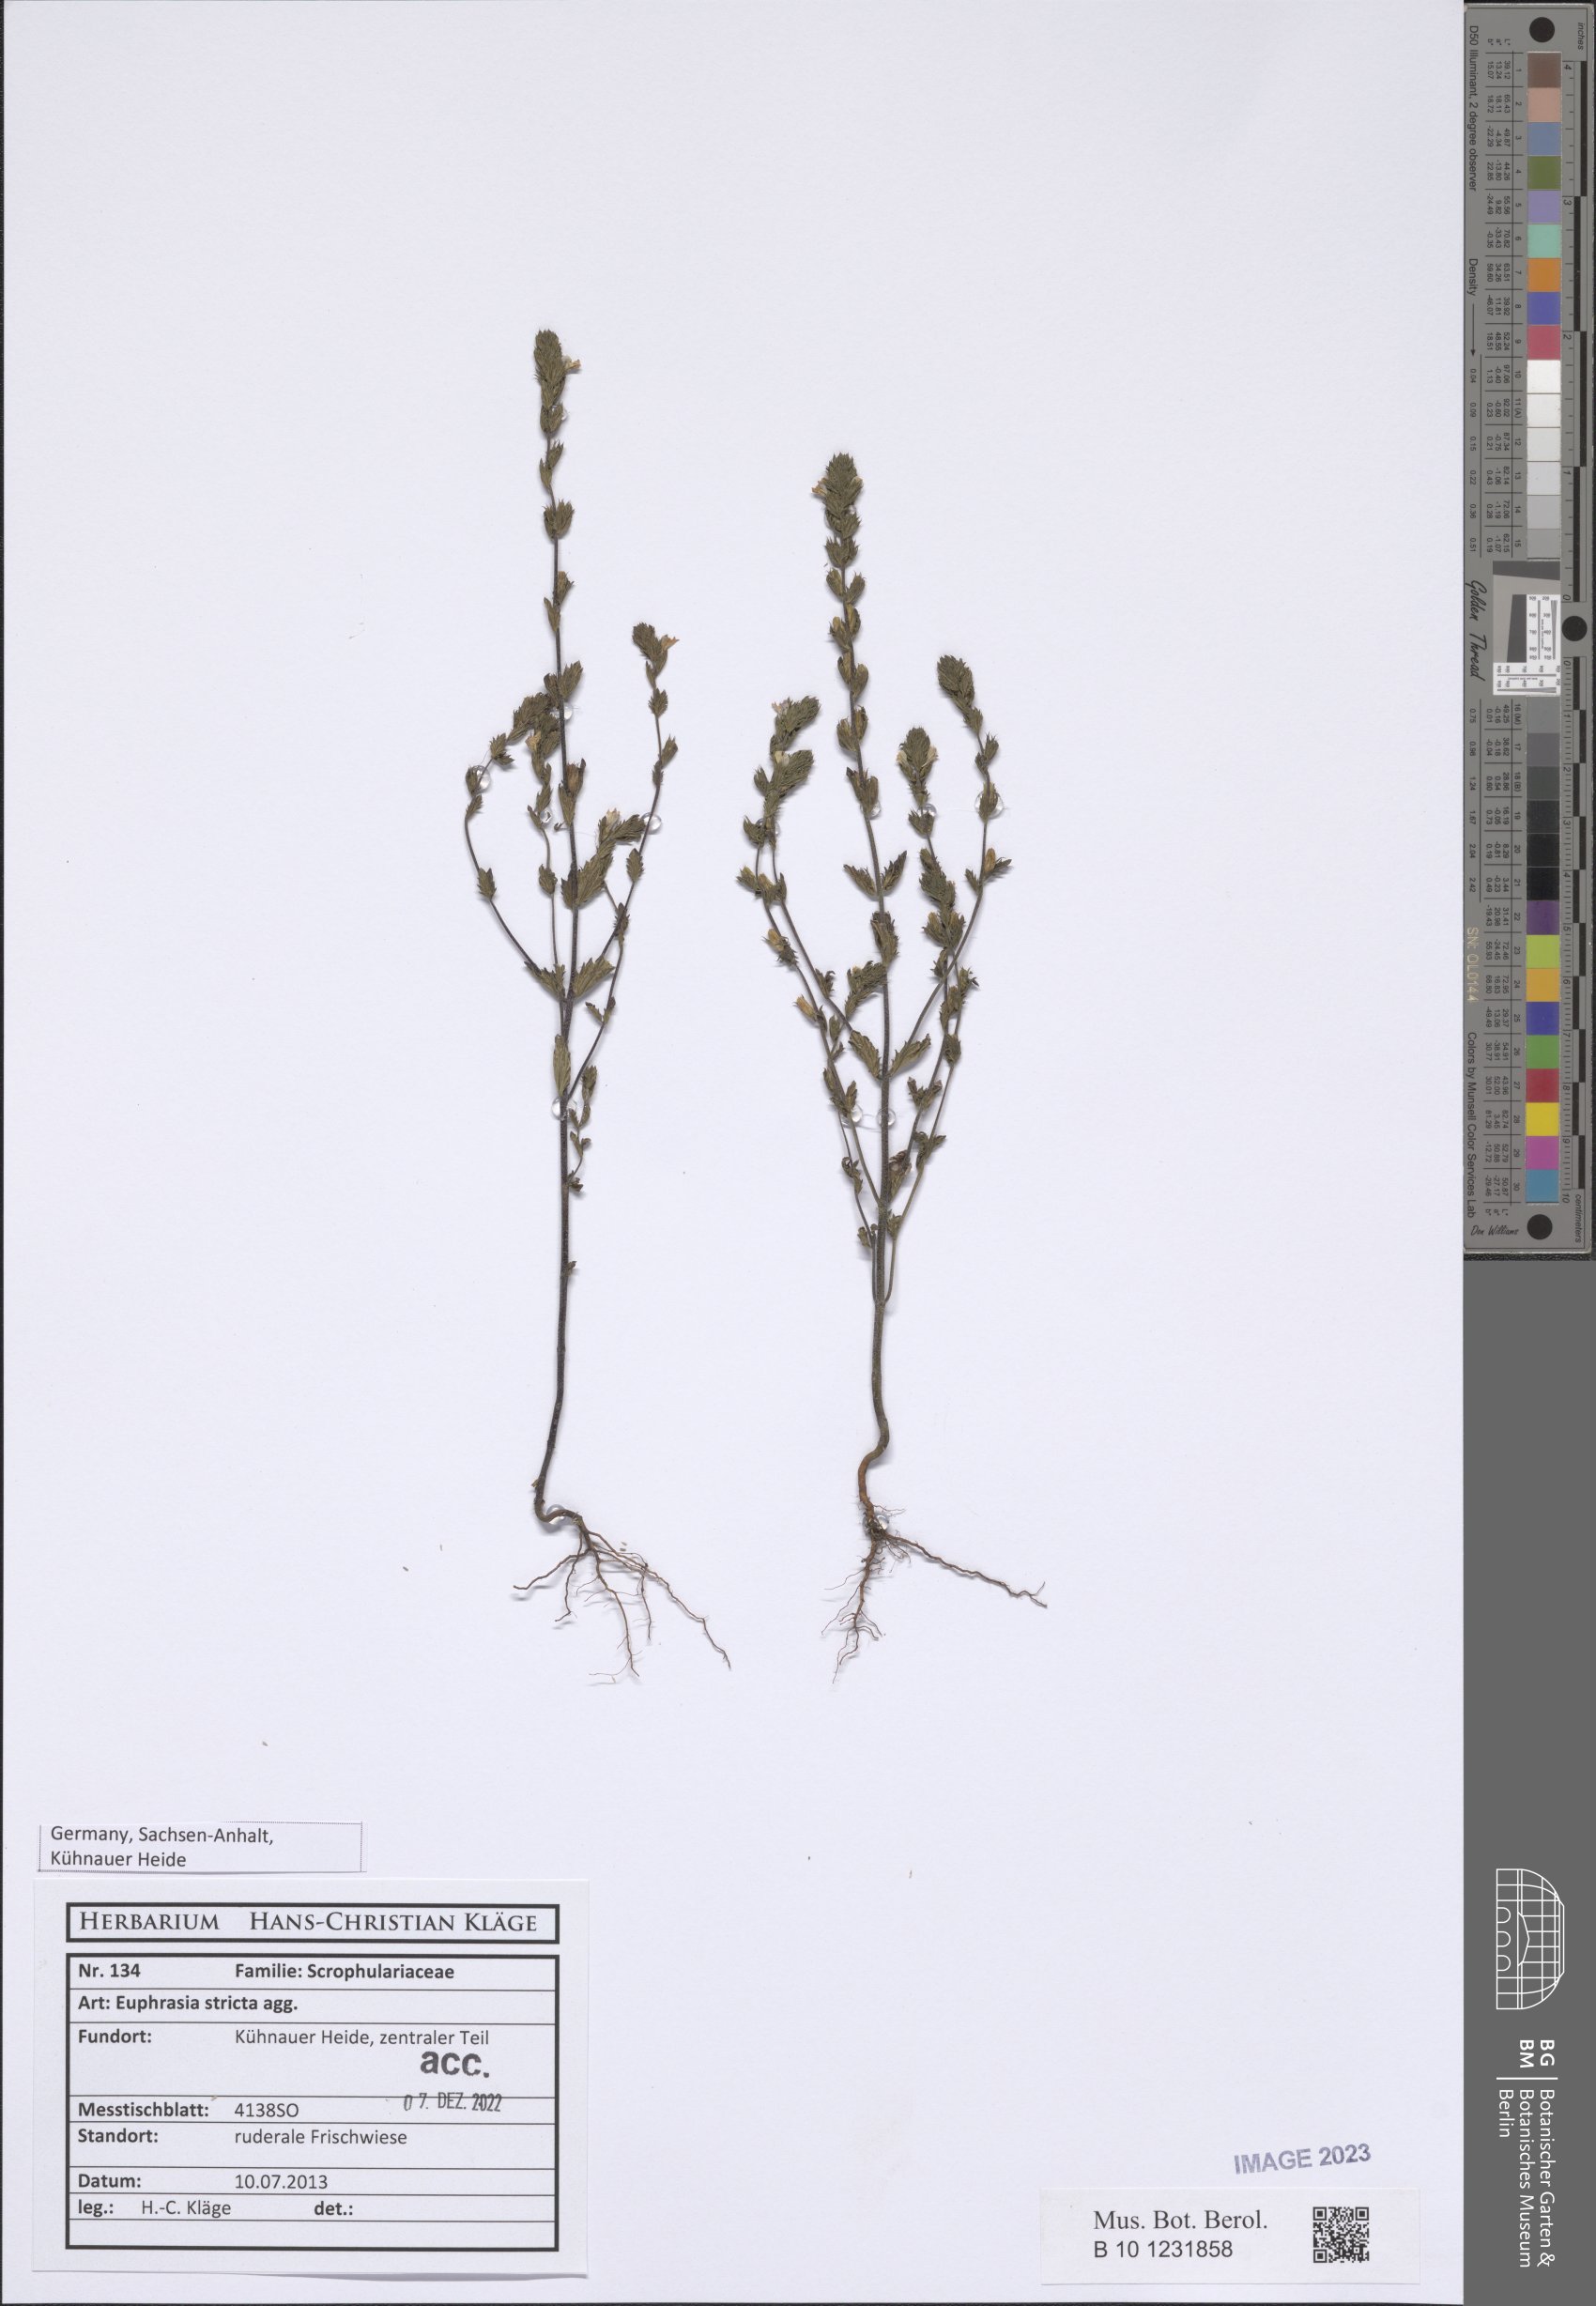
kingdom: Plantae
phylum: Tracheophyta
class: Magnoliopsida
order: Lamiales
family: Orobanchaceae
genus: Euphrasia
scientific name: Euphrasia stricta
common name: Drug eyebright
